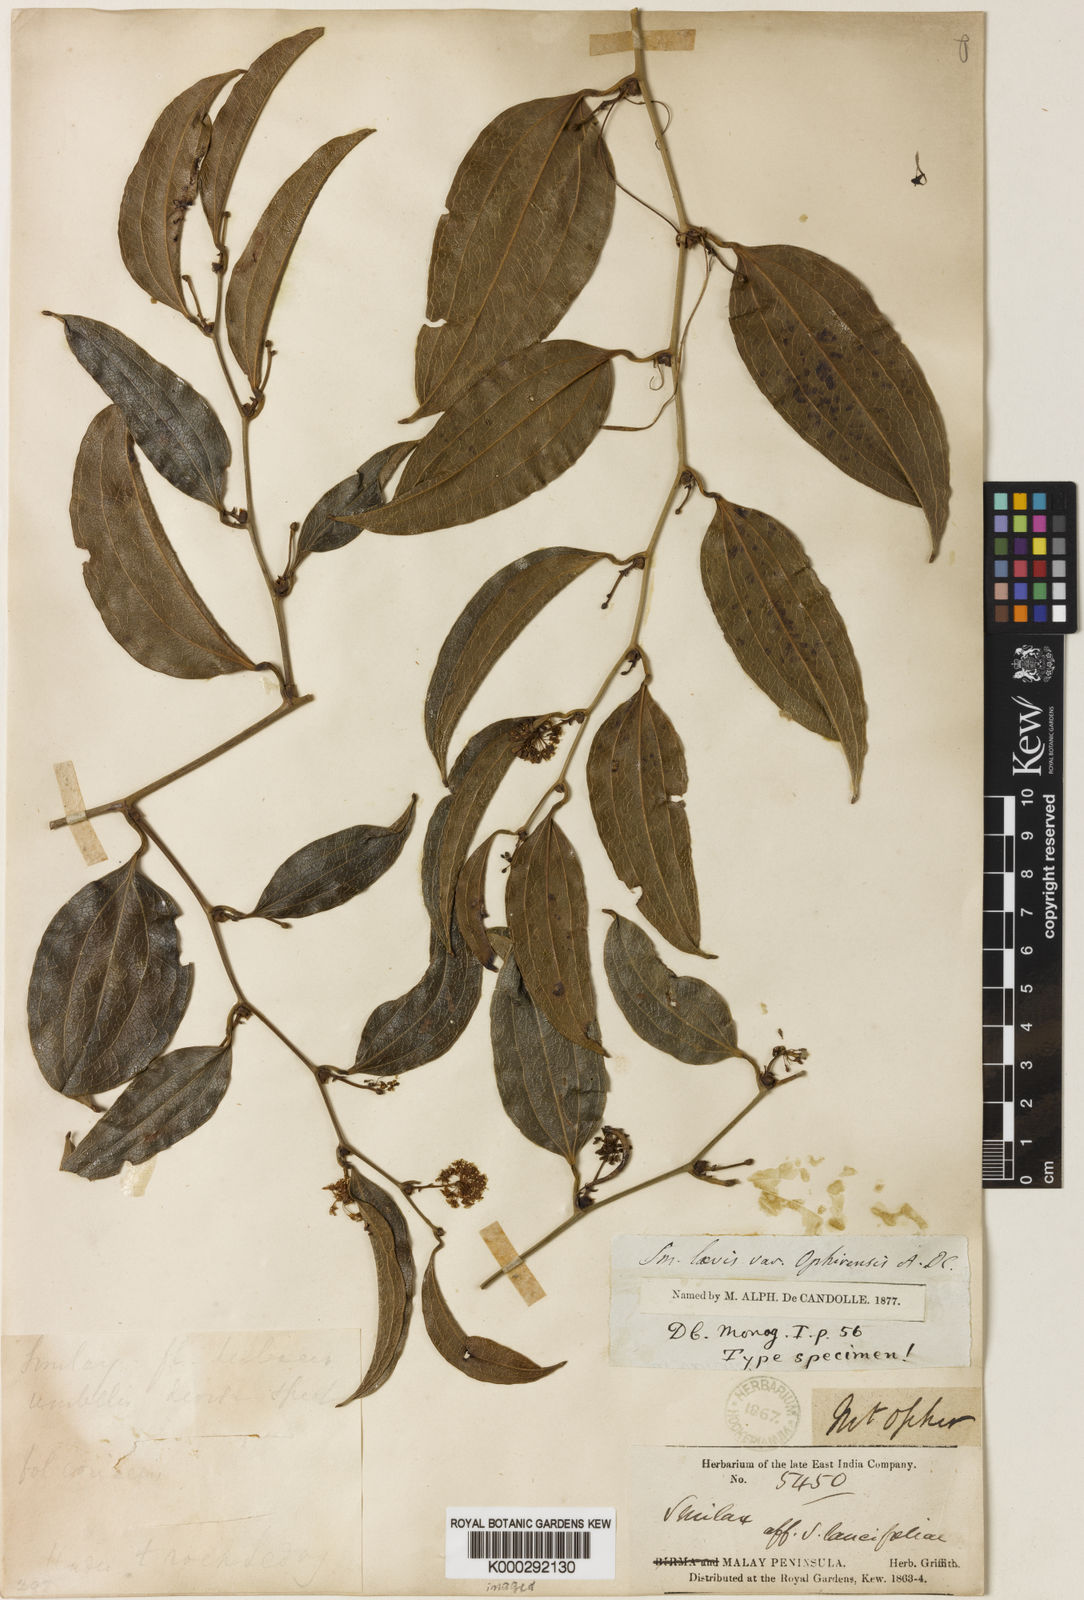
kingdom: Plantae
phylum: Tracheophyta
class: Liliopsida
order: Liliales
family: Smilacaceae
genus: Smilax
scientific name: Smilax laevis
